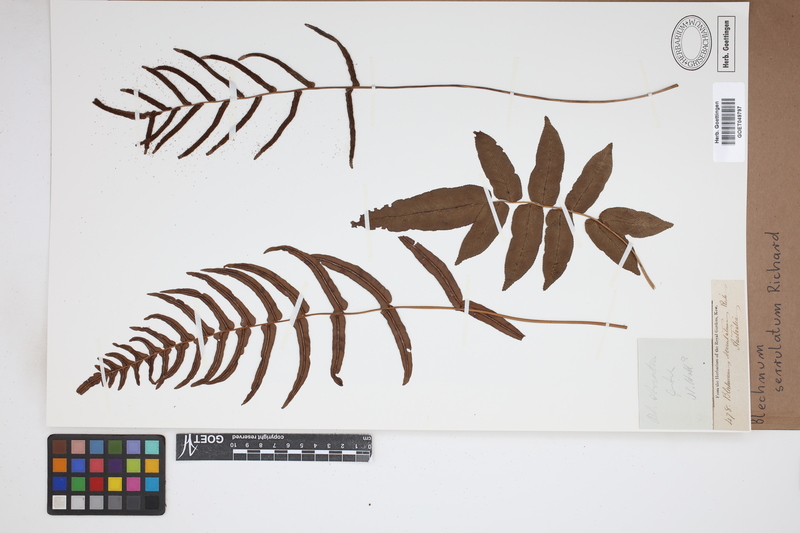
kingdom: Plantae
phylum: Tracheophyta
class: Polypodiopsida
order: Polypodiales
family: Blechnaceae
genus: Telmatoblechnum
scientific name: Telmatoblechnum serrulatum
